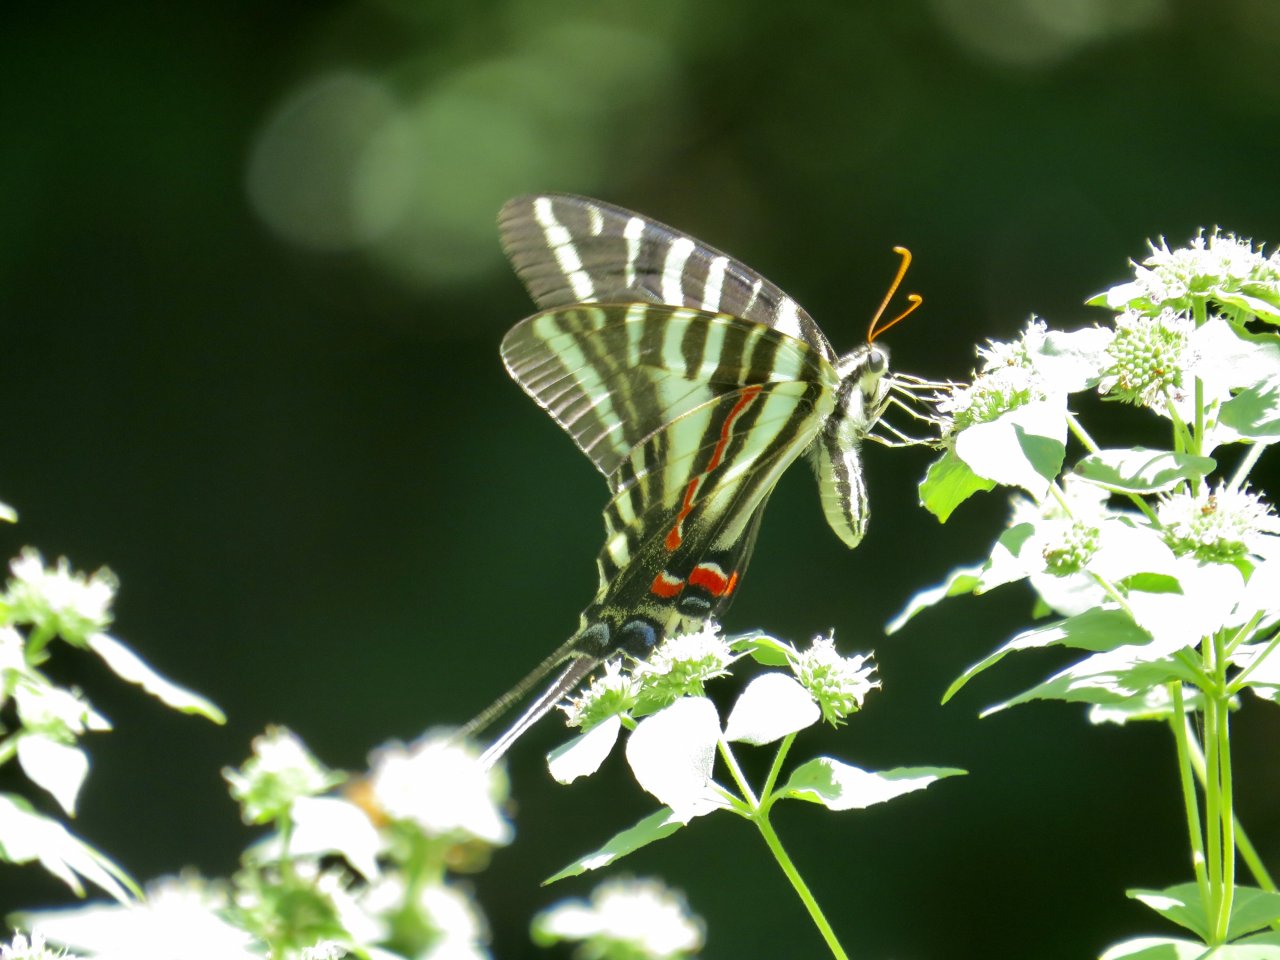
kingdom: Animalia
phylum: Arthropoda
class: Insecta
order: Lepidoptera
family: Papilionidae
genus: Protographium
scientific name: Protographium marcellus
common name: Zebra Swallowtail
